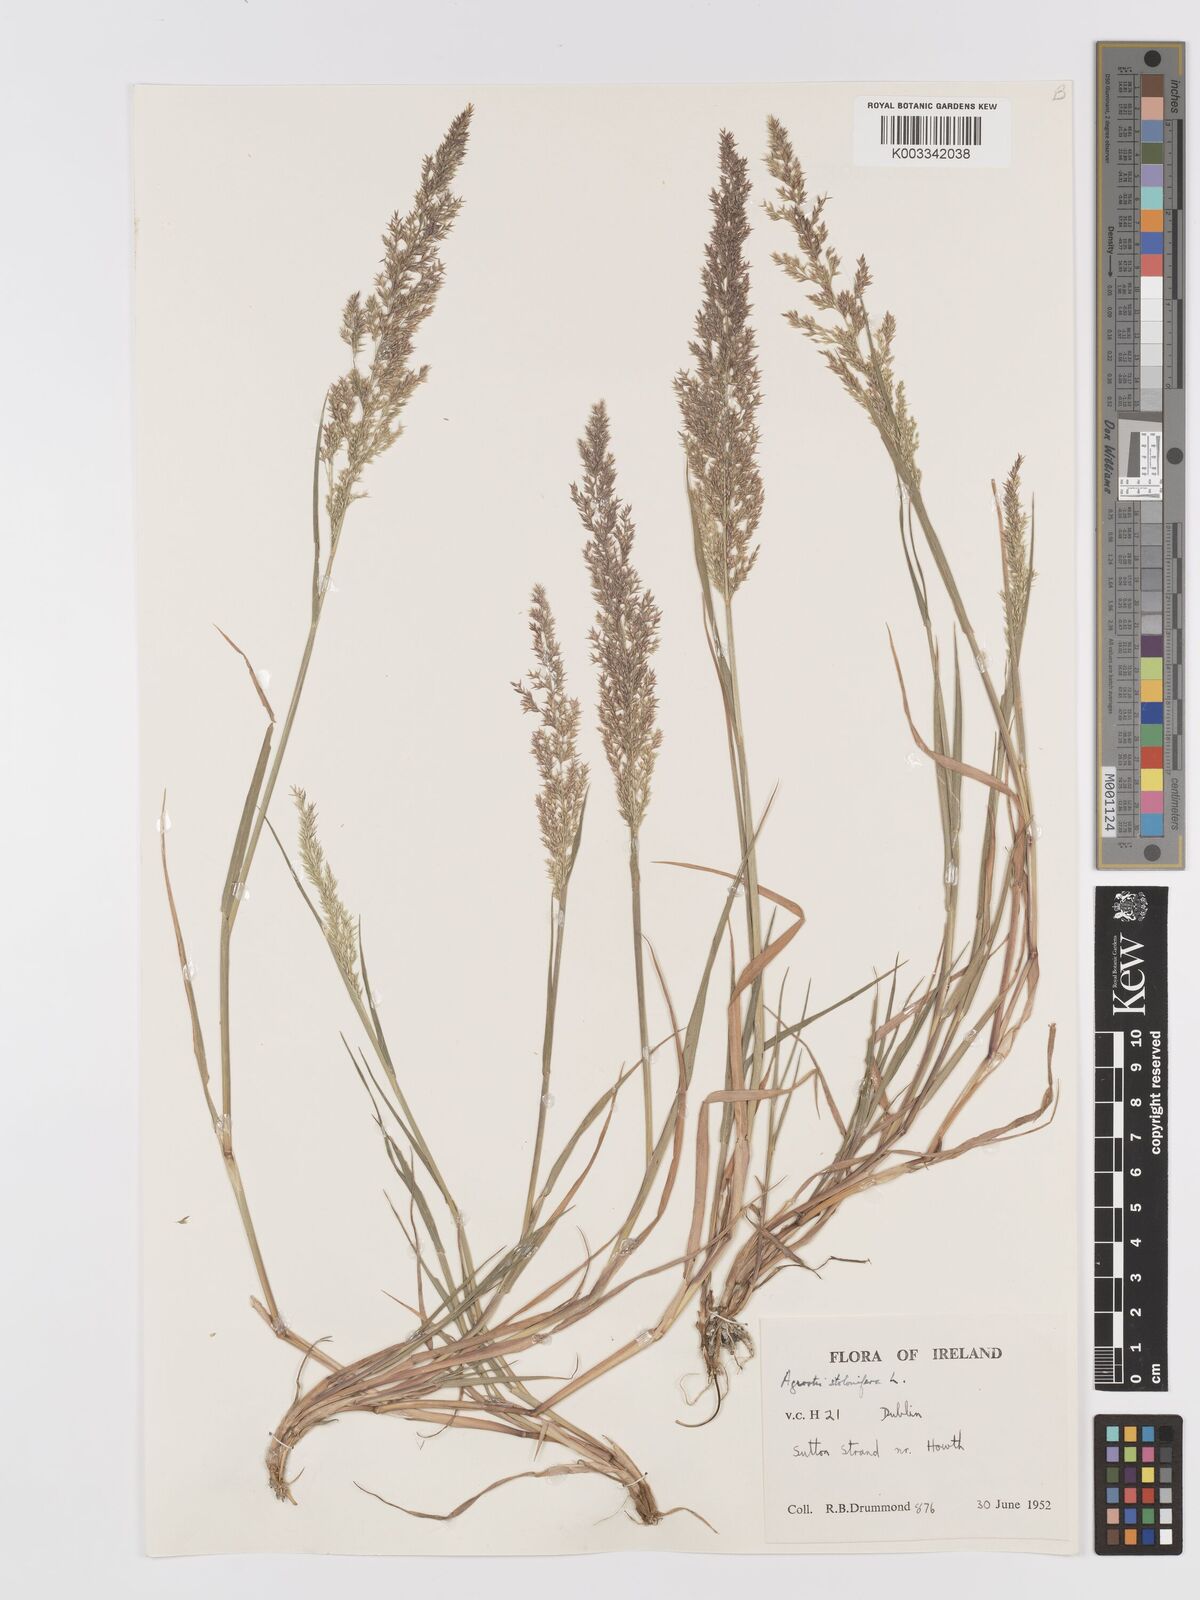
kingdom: Plantae
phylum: Tracheophyta
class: Liliopsida
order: Poales
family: Poaceae
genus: Agrostis
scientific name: Agrostis stolonifera
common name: Creeping bentgrass
